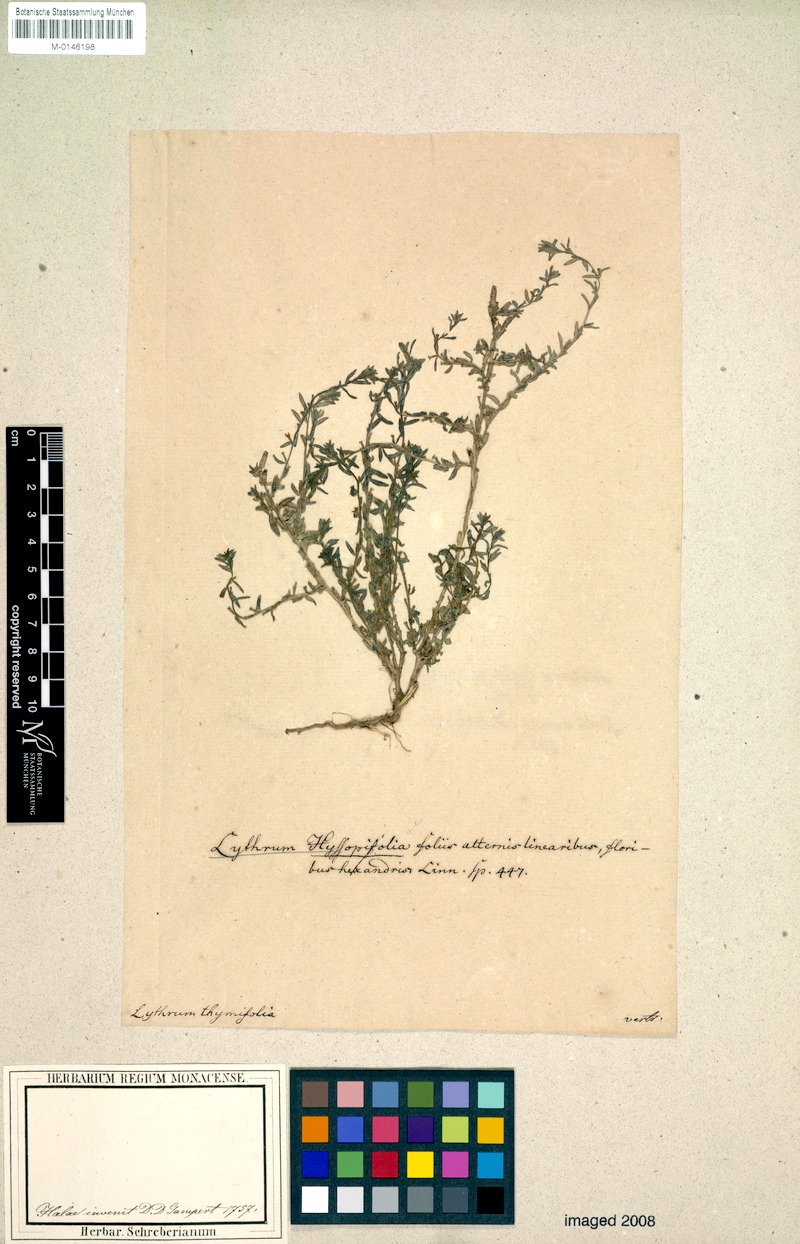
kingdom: Plantae
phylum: Tracheophyta
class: Magnoliopsida
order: Myrtales
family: Lythraceae
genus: Lythrum
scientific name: Lythrum hyssopifolia
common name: Grass-poly
